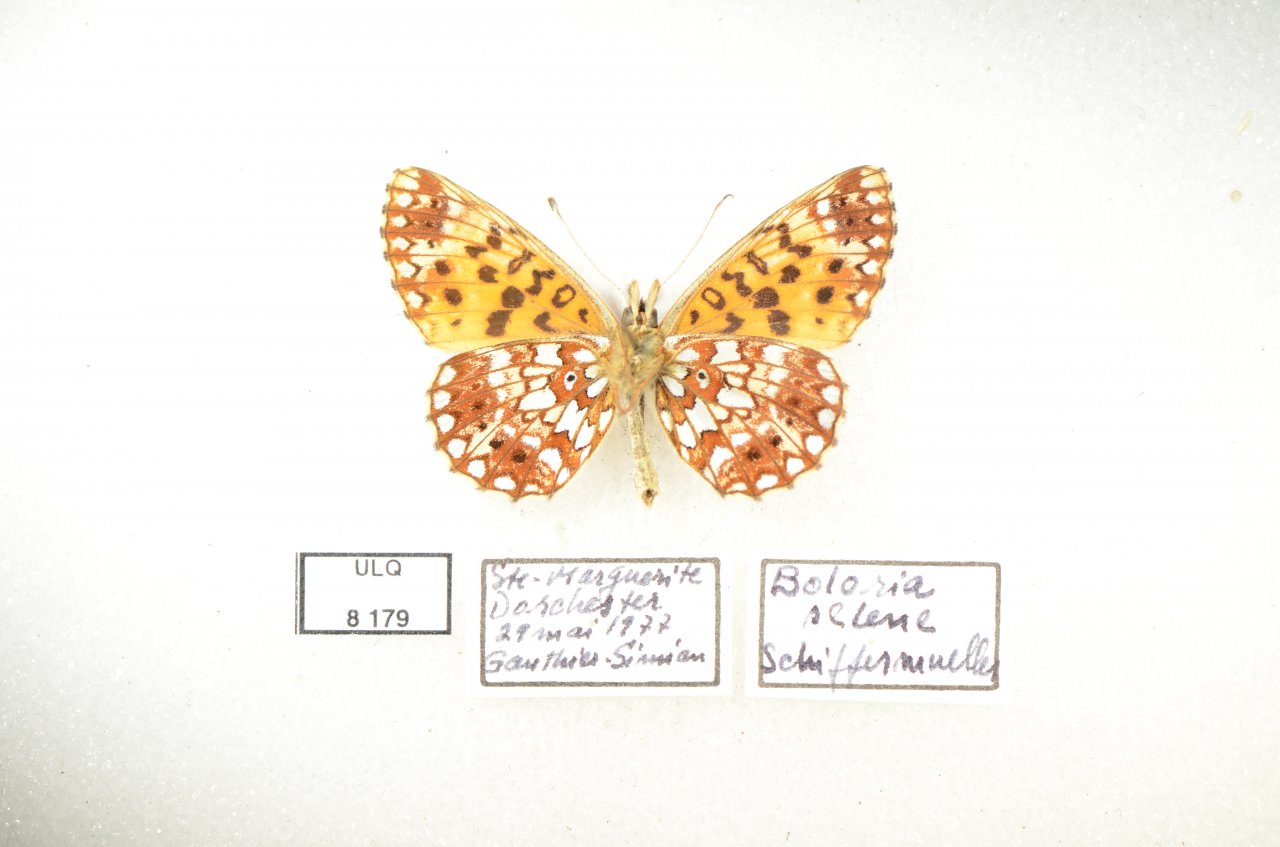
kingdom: Animalia
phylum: Arthropoda
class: Insecta
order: Lepidoptera
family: Nymphalidae
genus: Boloria
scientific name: Boloria selene
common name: Silver-bordered Fritillary
